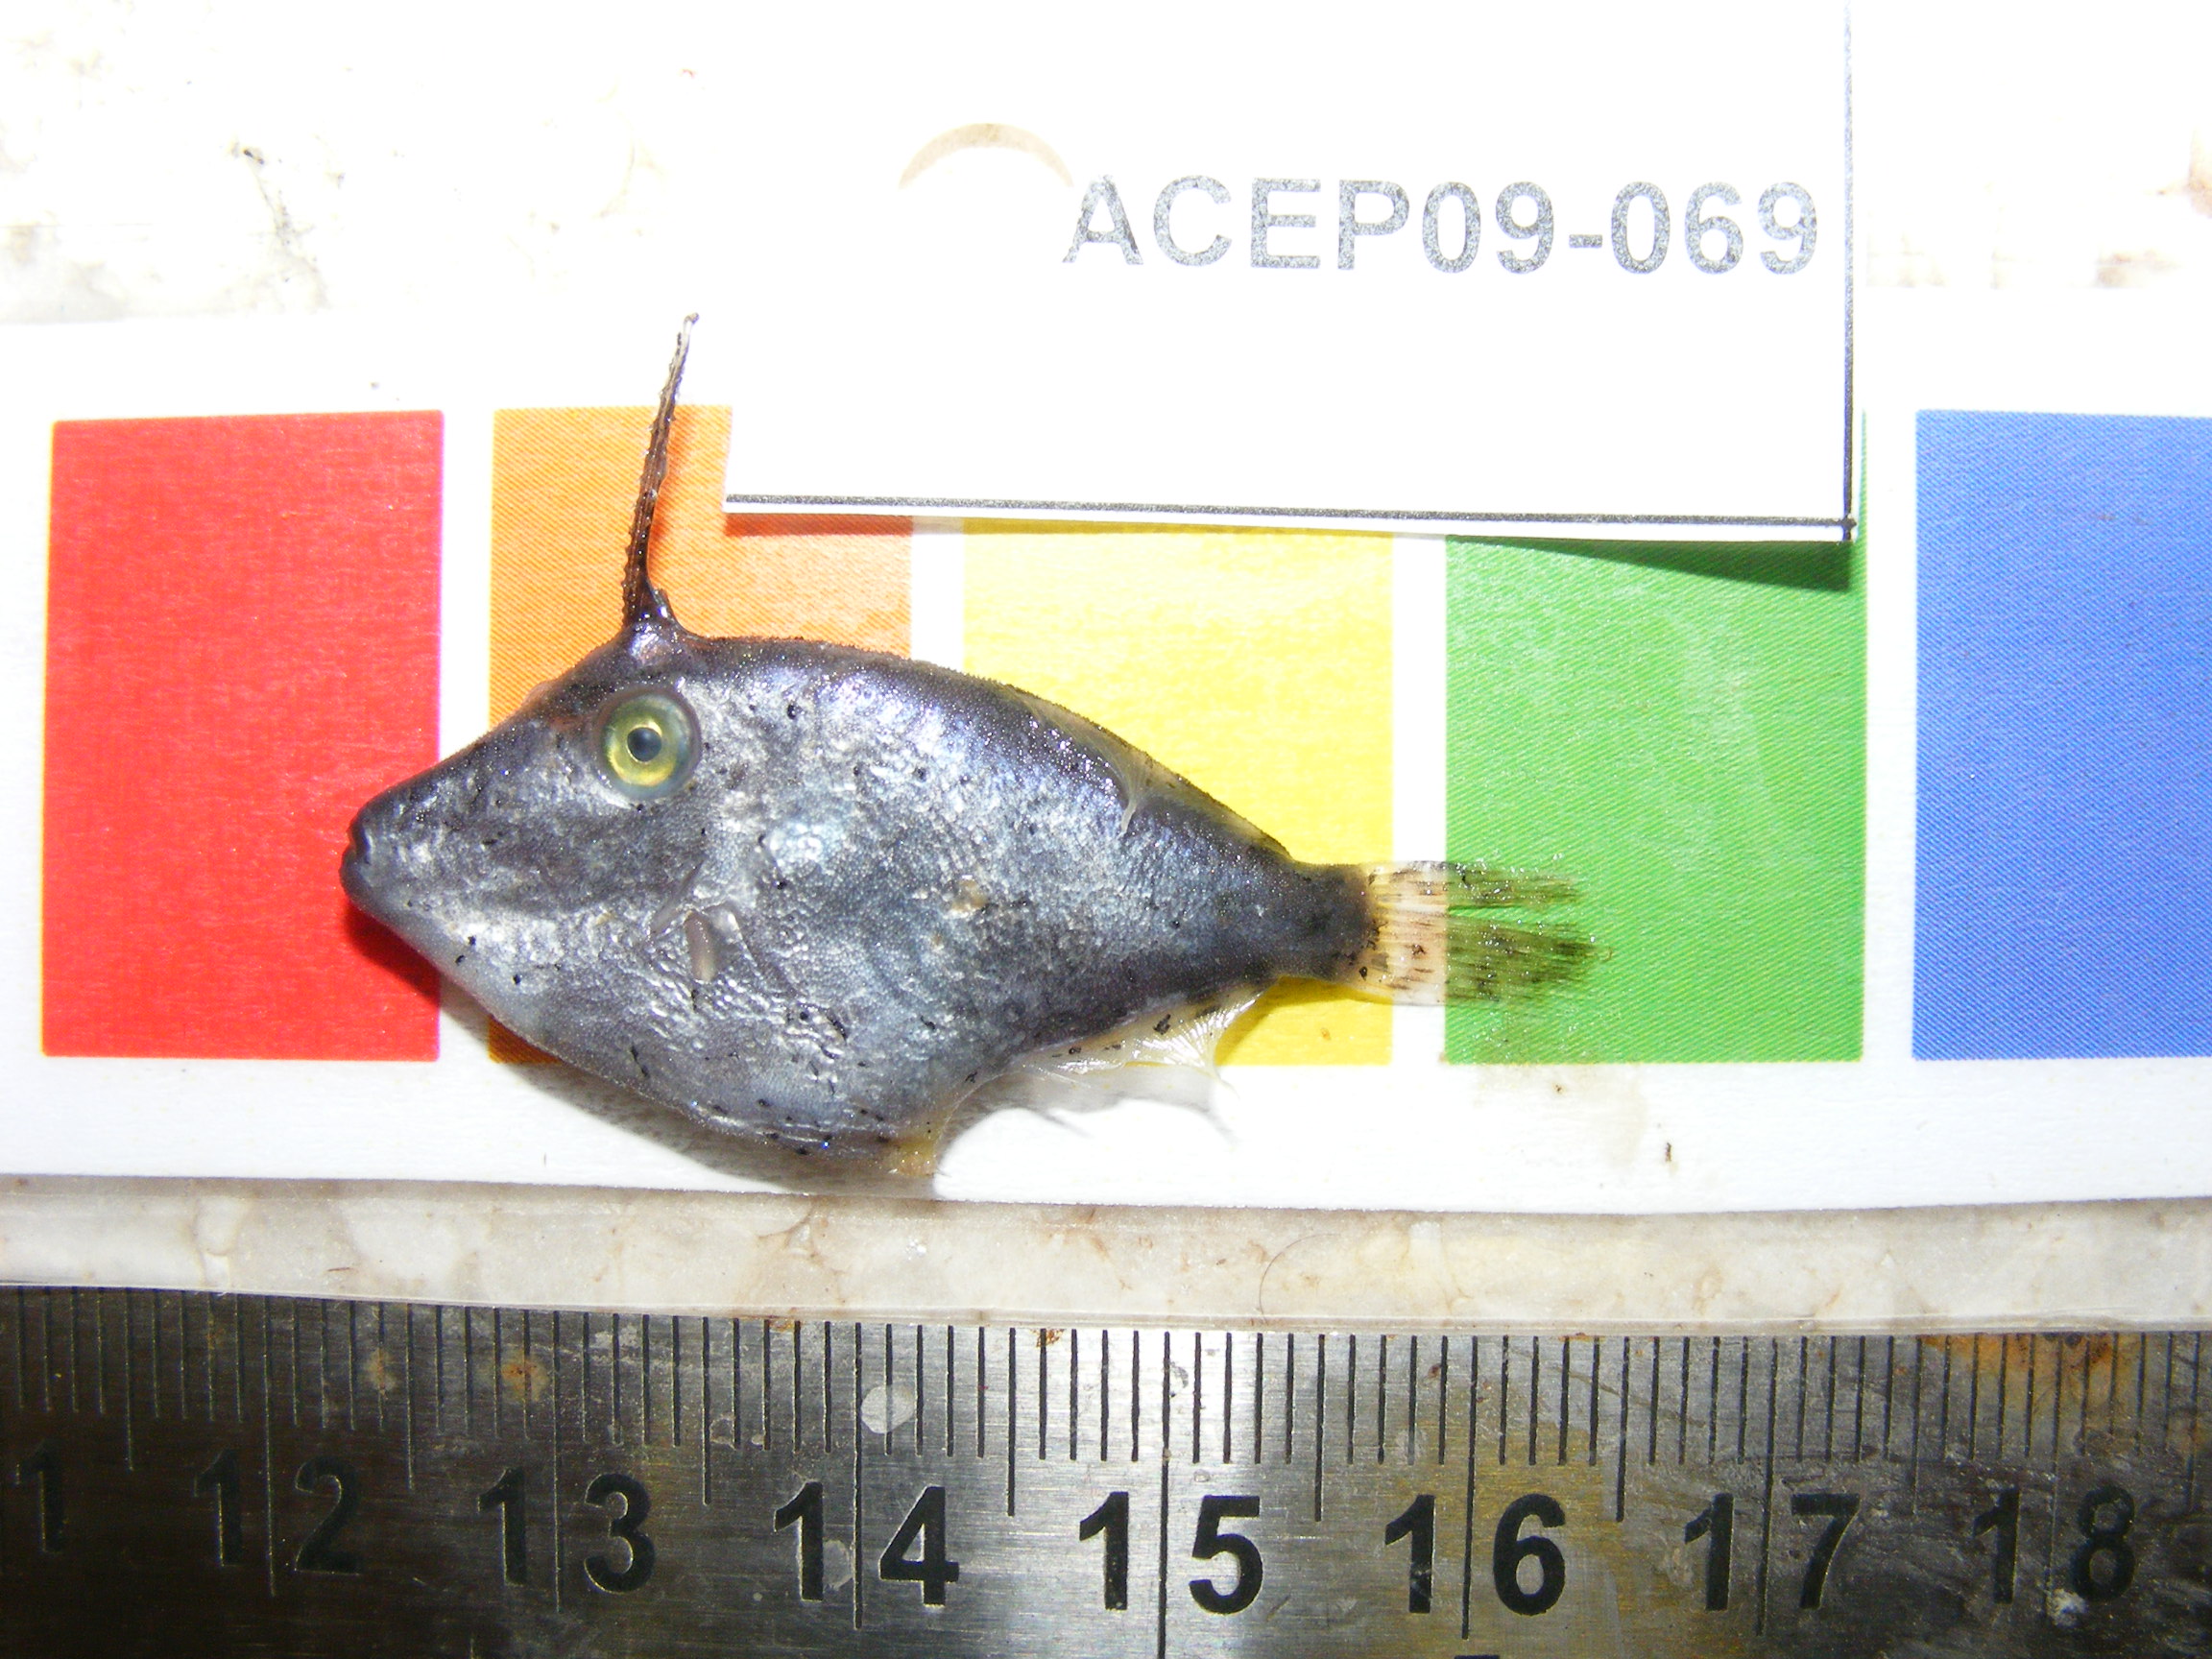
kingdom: Animalia
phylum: Chordata
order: Tetraodontiformes
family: Monacanthidae
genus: Pervagor
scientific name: Pervagor melanocephalus
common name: Black-headed leatherjacket
